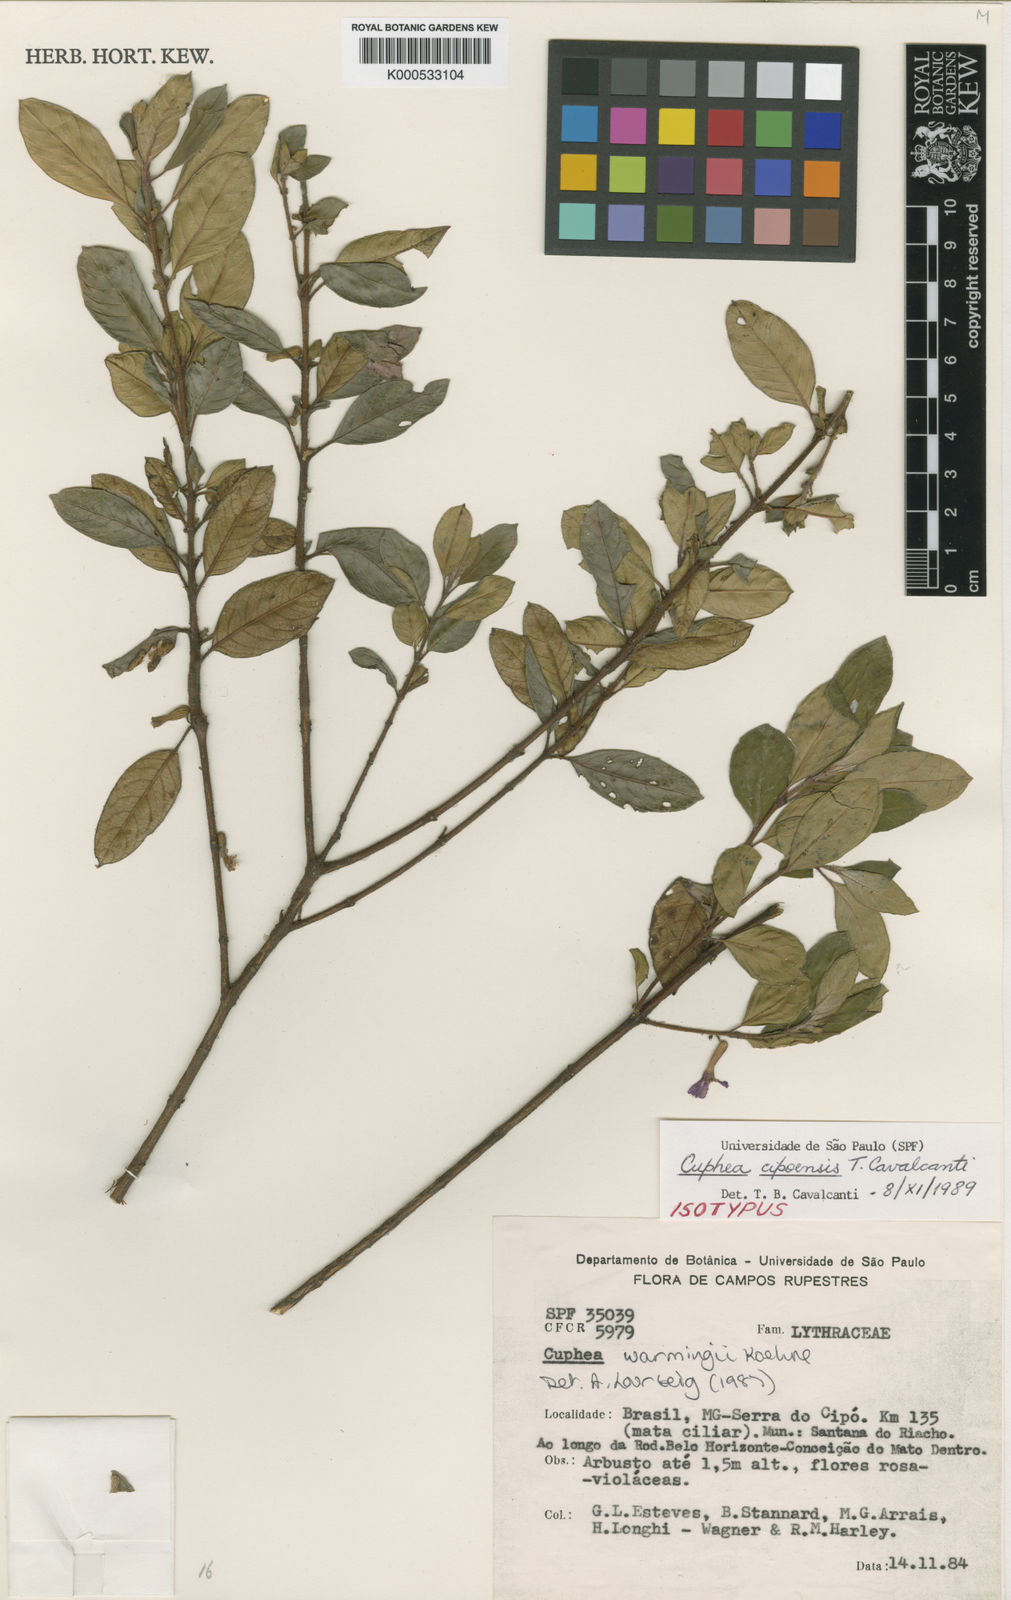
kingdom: Plantae
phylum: Tracheophyta
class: Magnoliopsida
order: Myrtales
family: Lythraceae
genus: Cuphea
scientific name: Cuphea cipoensis
